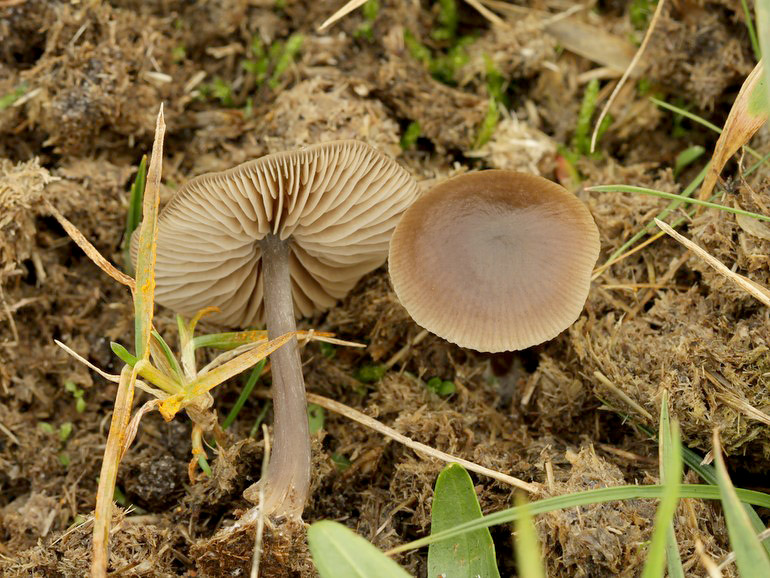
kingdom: Fungi
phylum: Basidiomycota
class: Agaricomycetes
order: Agaricales
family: Entolomataceae
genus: Entoloma
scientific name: Entoloma sericeum
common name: silkeglinsende rødblad
